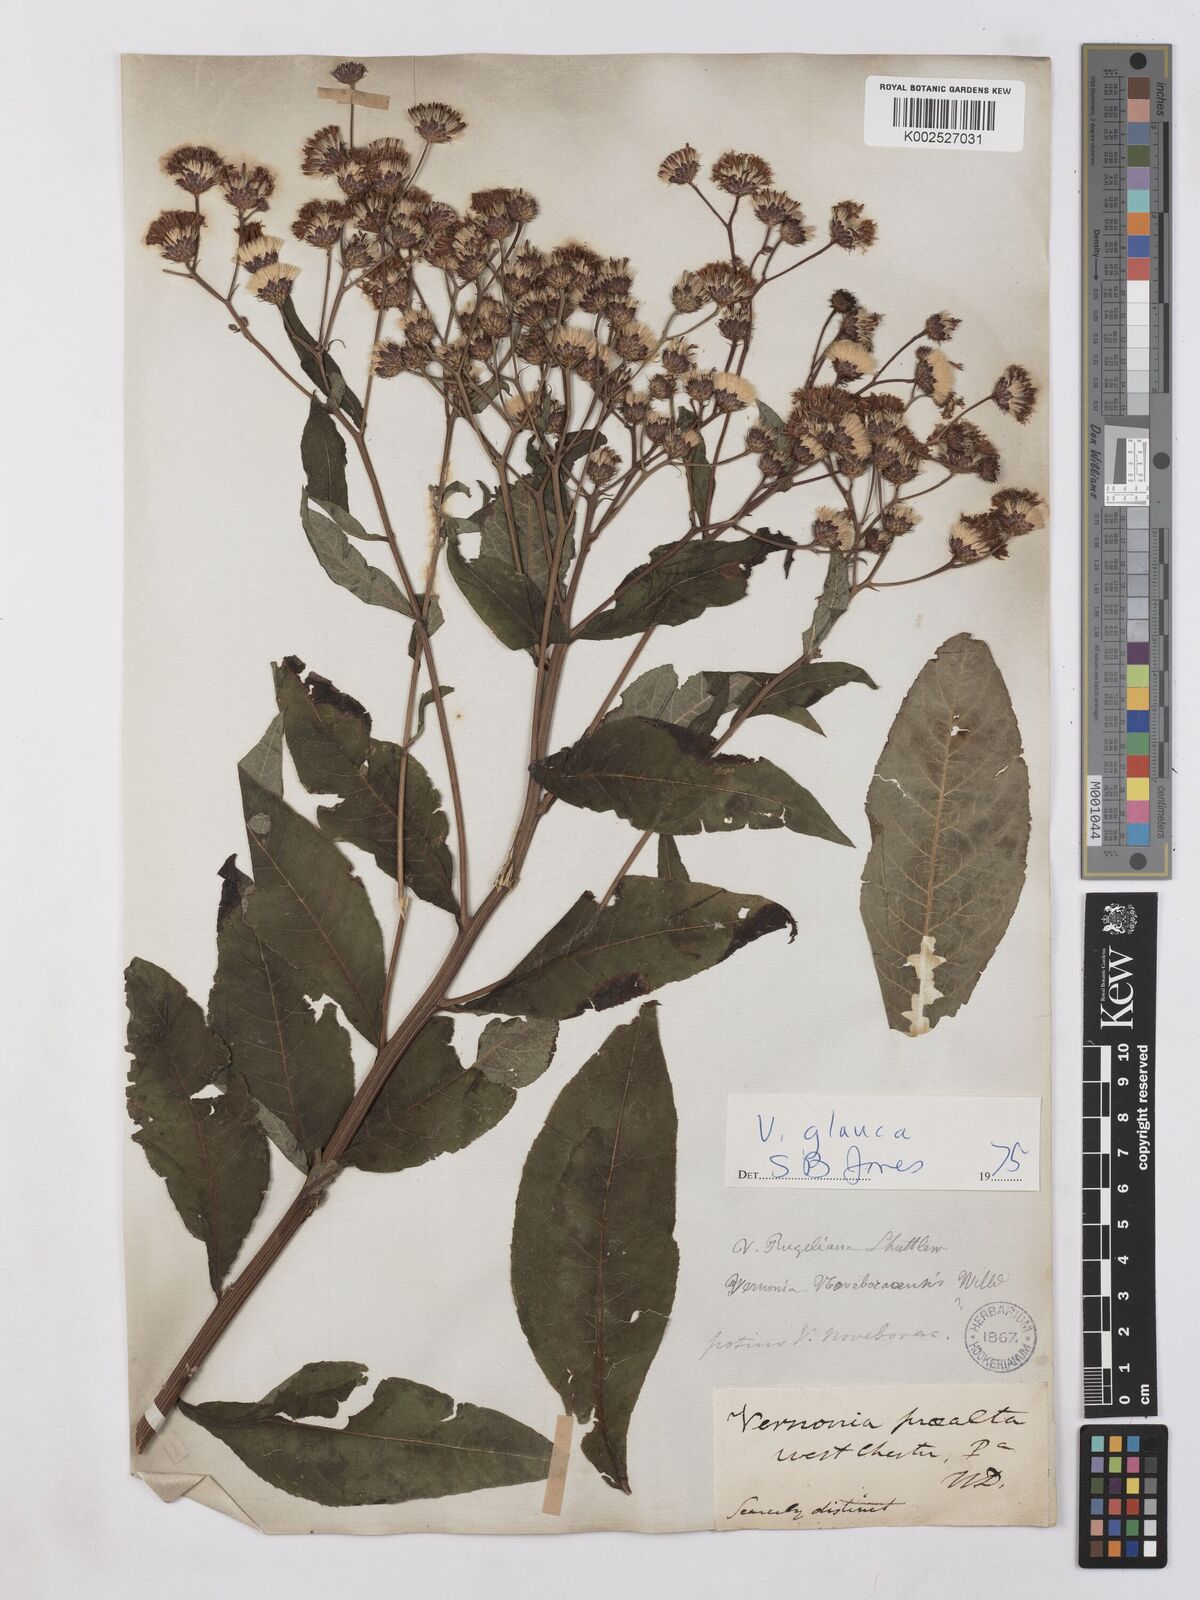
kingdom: Plantae
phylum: Tracheophyta
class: Magnoliopsida
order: Asterales
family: Asteraceae
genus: Vernonia
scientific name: Vernonia glauca
